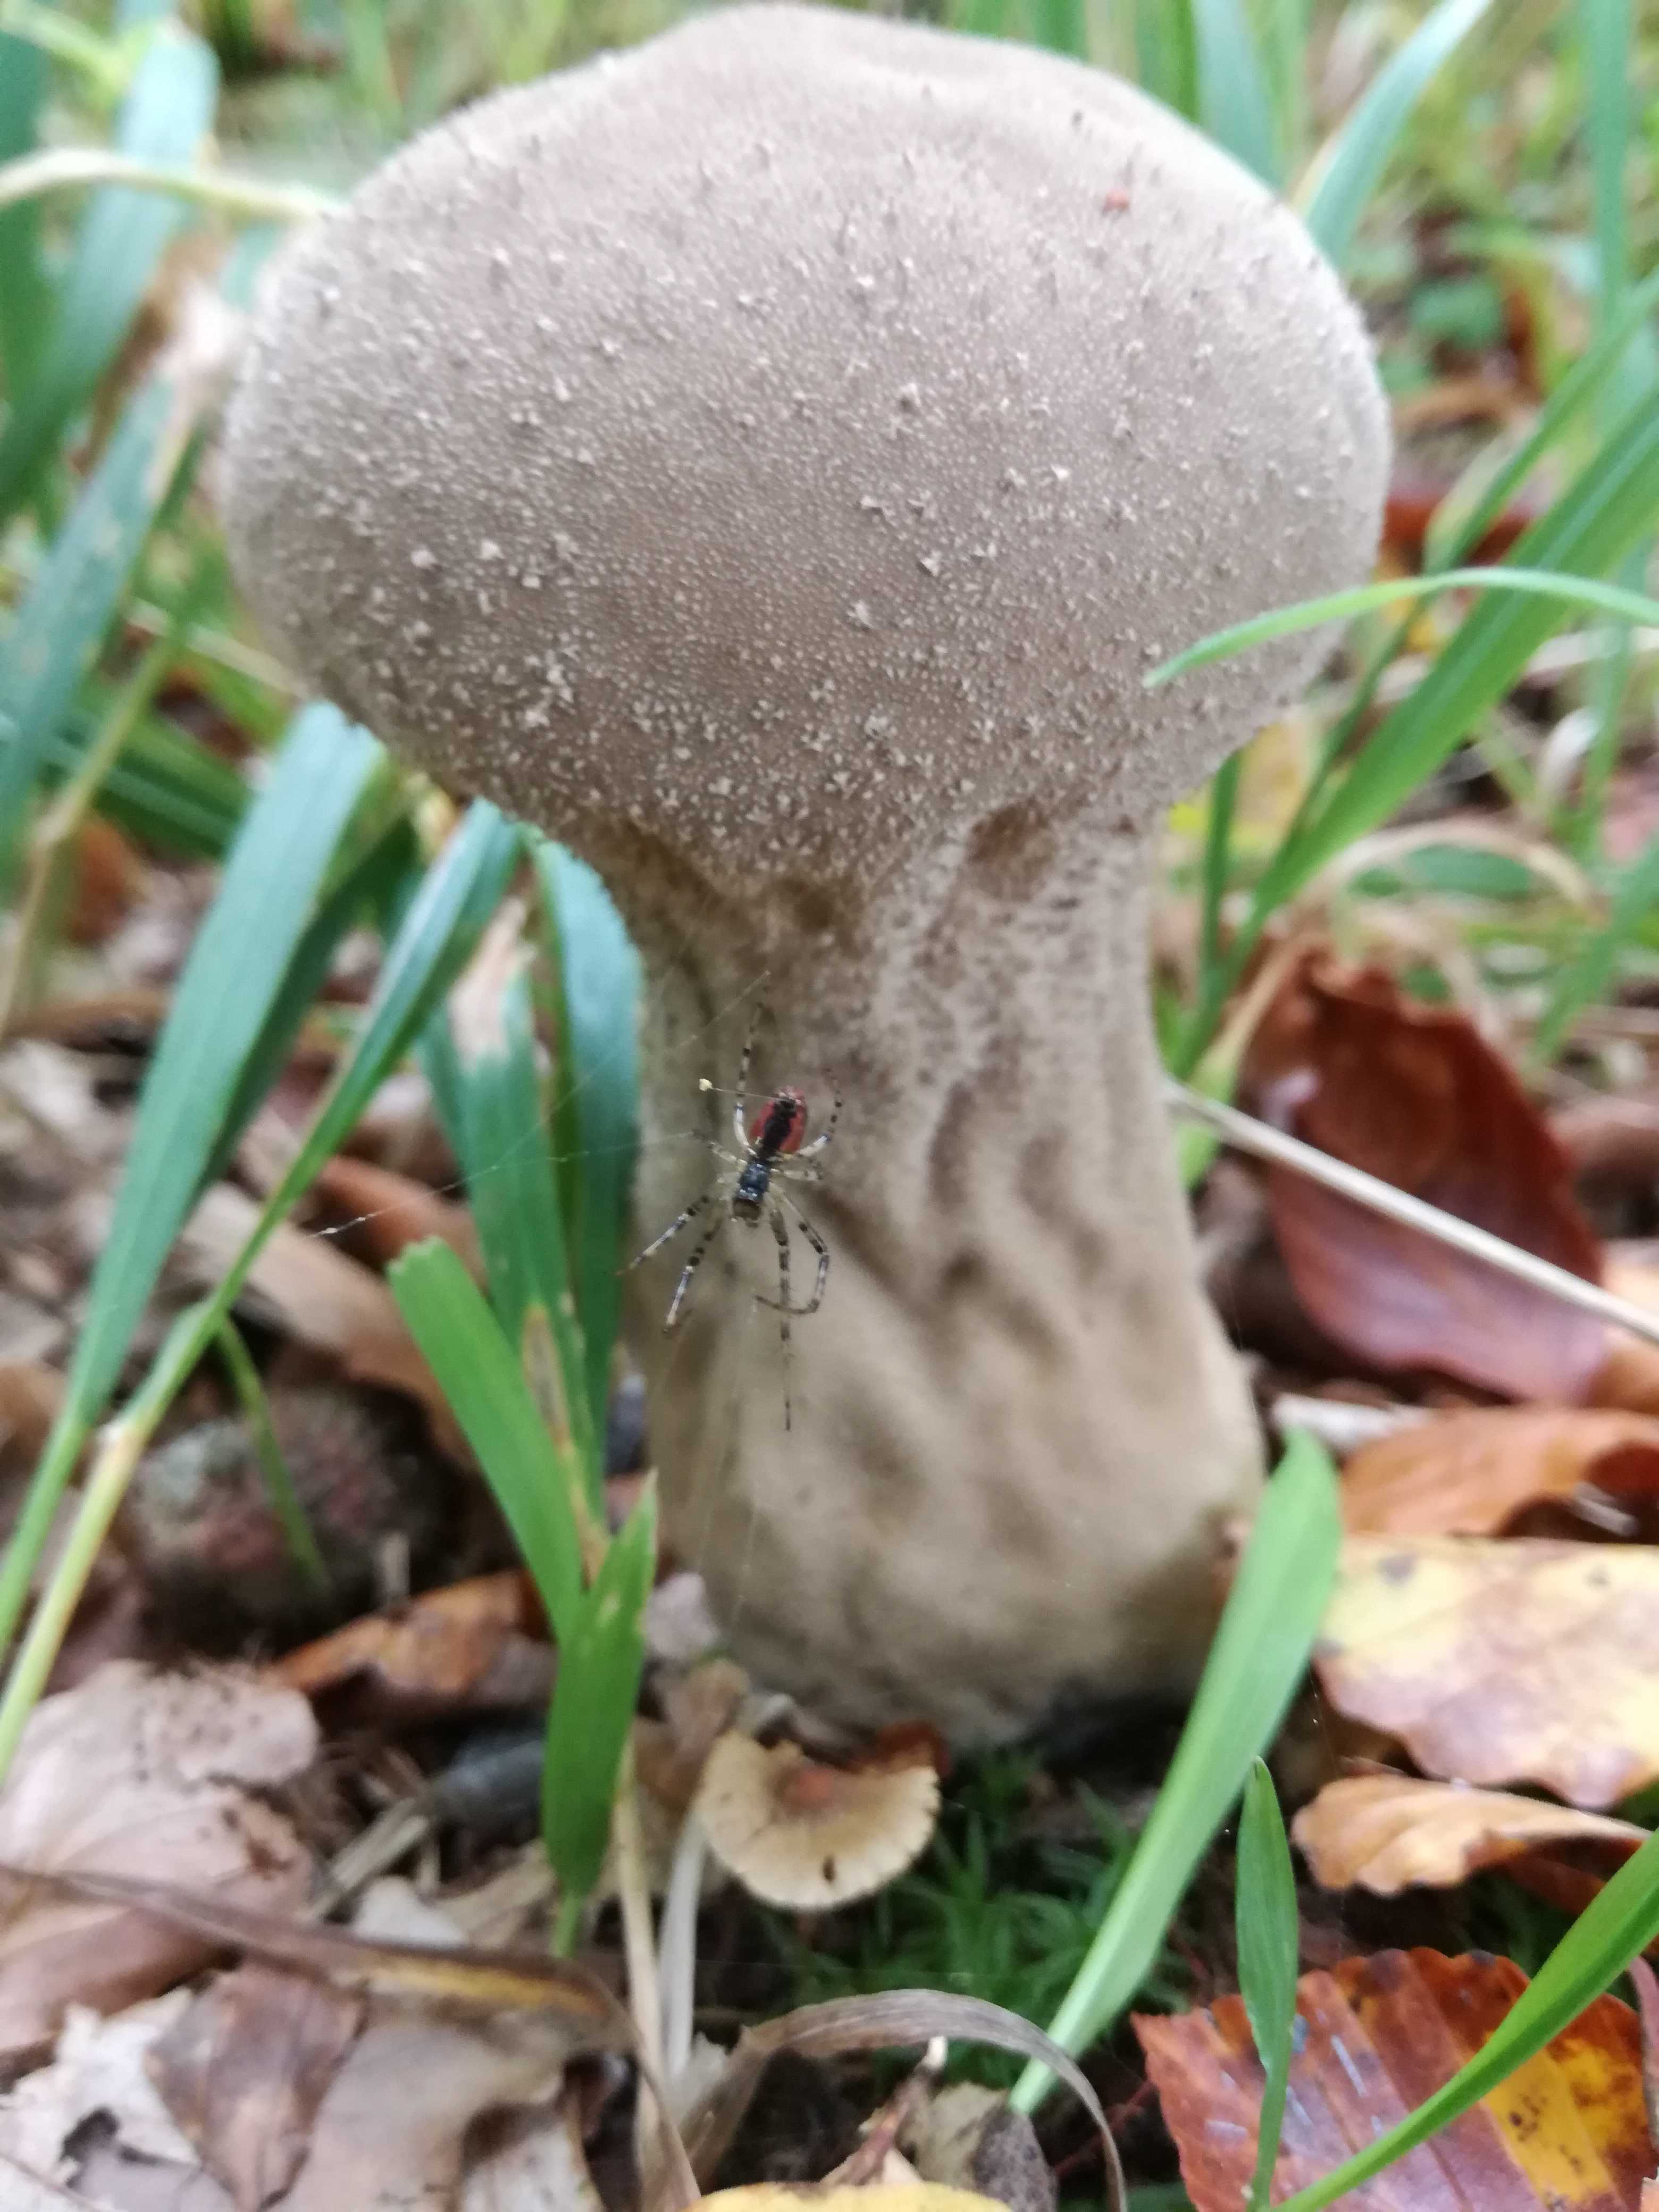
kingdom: Fungi
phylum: Basidiomycota
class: Agaricomycetes
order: Agaricales
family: Lycoperdaceae
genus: Lycoperdon
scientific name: Lycoperdon excipuliforme
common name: højstokket støvbold
